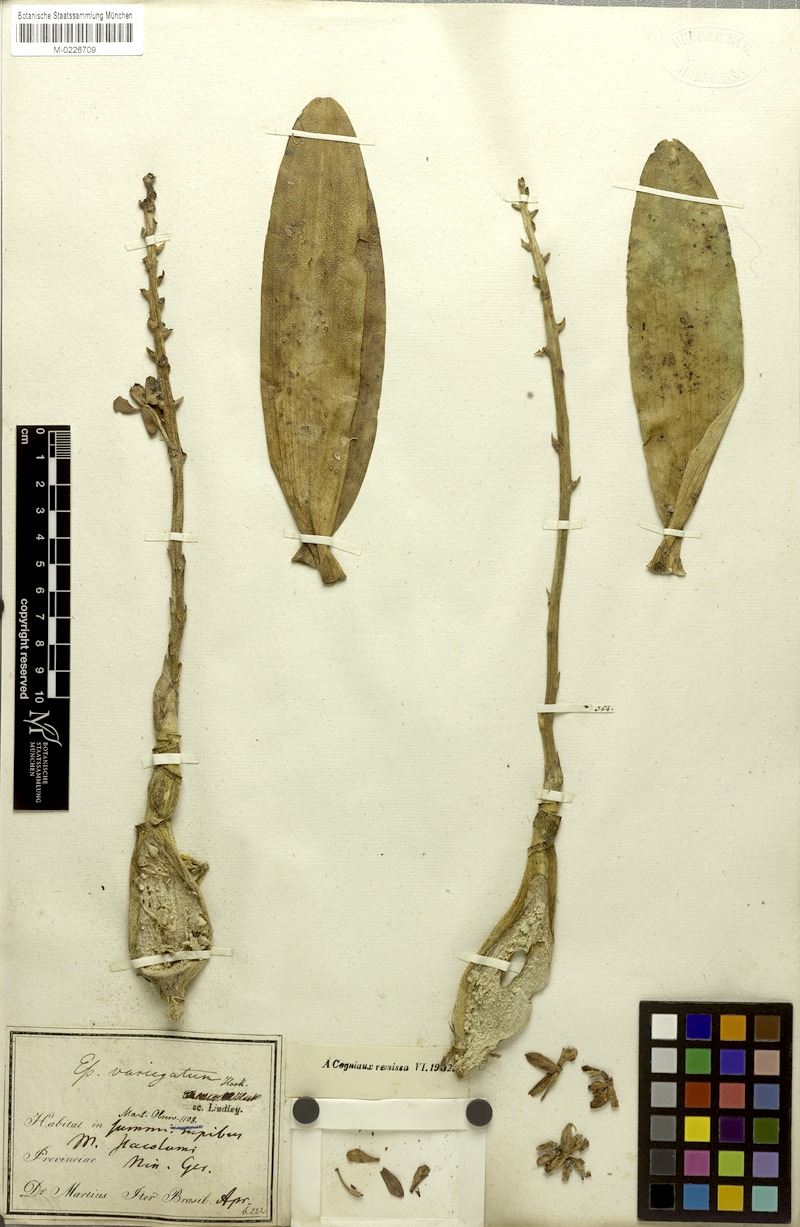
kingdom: Plantae
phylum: Tracheophyta
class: Liliopsida
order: Asparagales
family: Orchidaceae
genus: Prosthechea
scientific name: Prosthechea crassilabia
